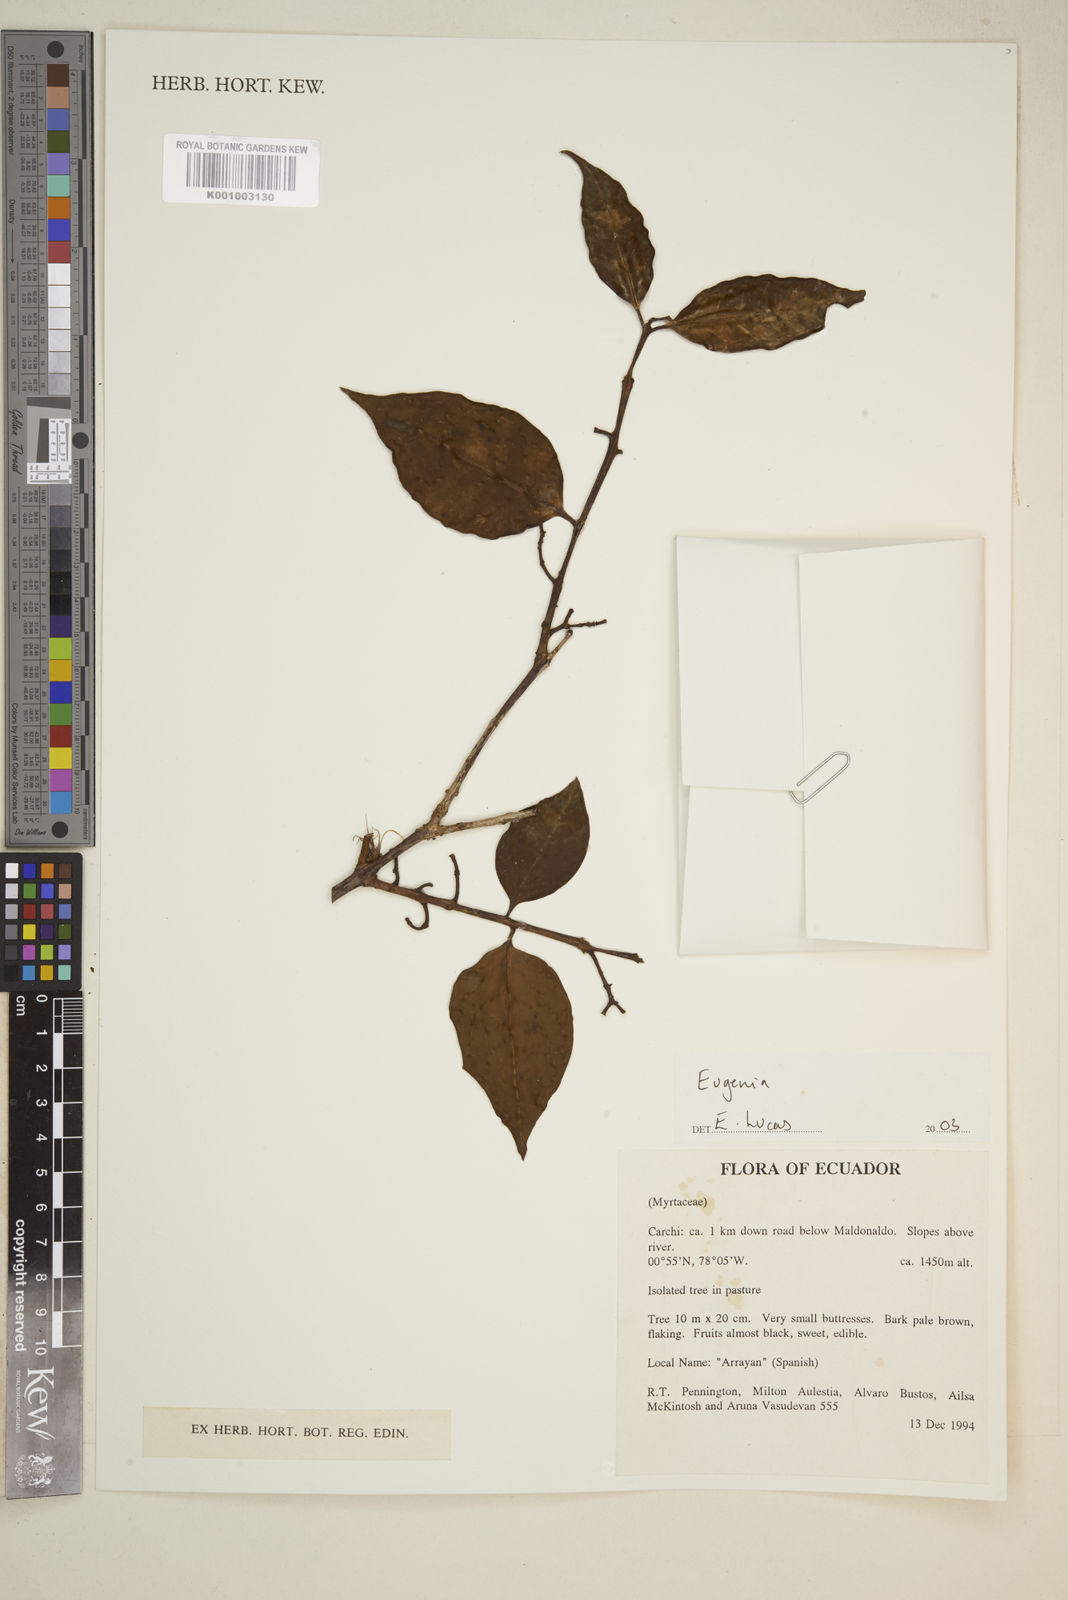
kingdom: Plantae
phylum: Tracheophyta
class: Magnoliopsida
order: Myrtales
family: Myrtaceae
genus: Eugenia
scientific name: Eugenia
